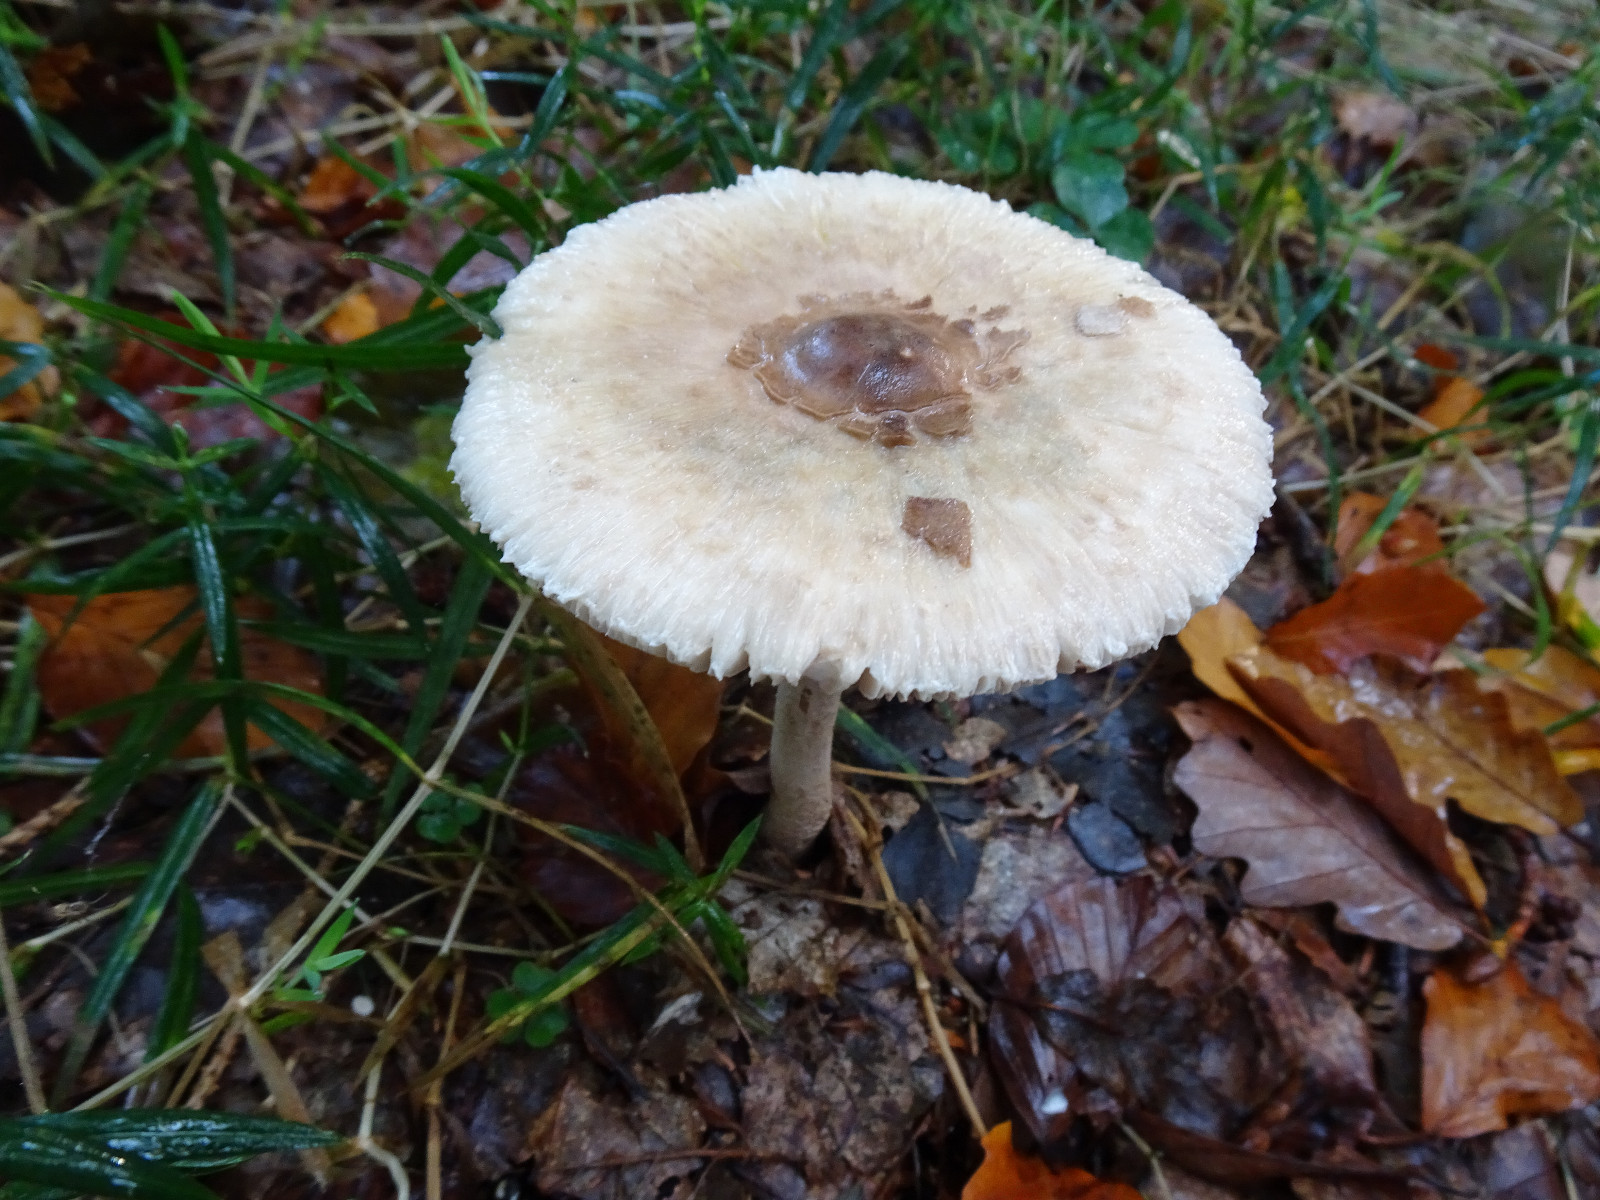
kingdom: Fungi
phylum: Basidiomycota
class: Agaricomycetes
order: Agaricales
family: Agaricaceae
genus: Macrolepiota
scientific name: Macrolepiota mastoidea
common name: puklet kæmpeparasolhat
